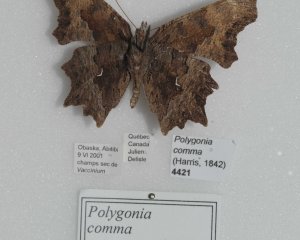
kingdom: Animalia
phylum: Arthropoda
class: Insecta
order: Lepidoptera
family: Nymphalidae
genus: Polygonia
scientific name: Polygonia comma
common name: Eastern Comma
